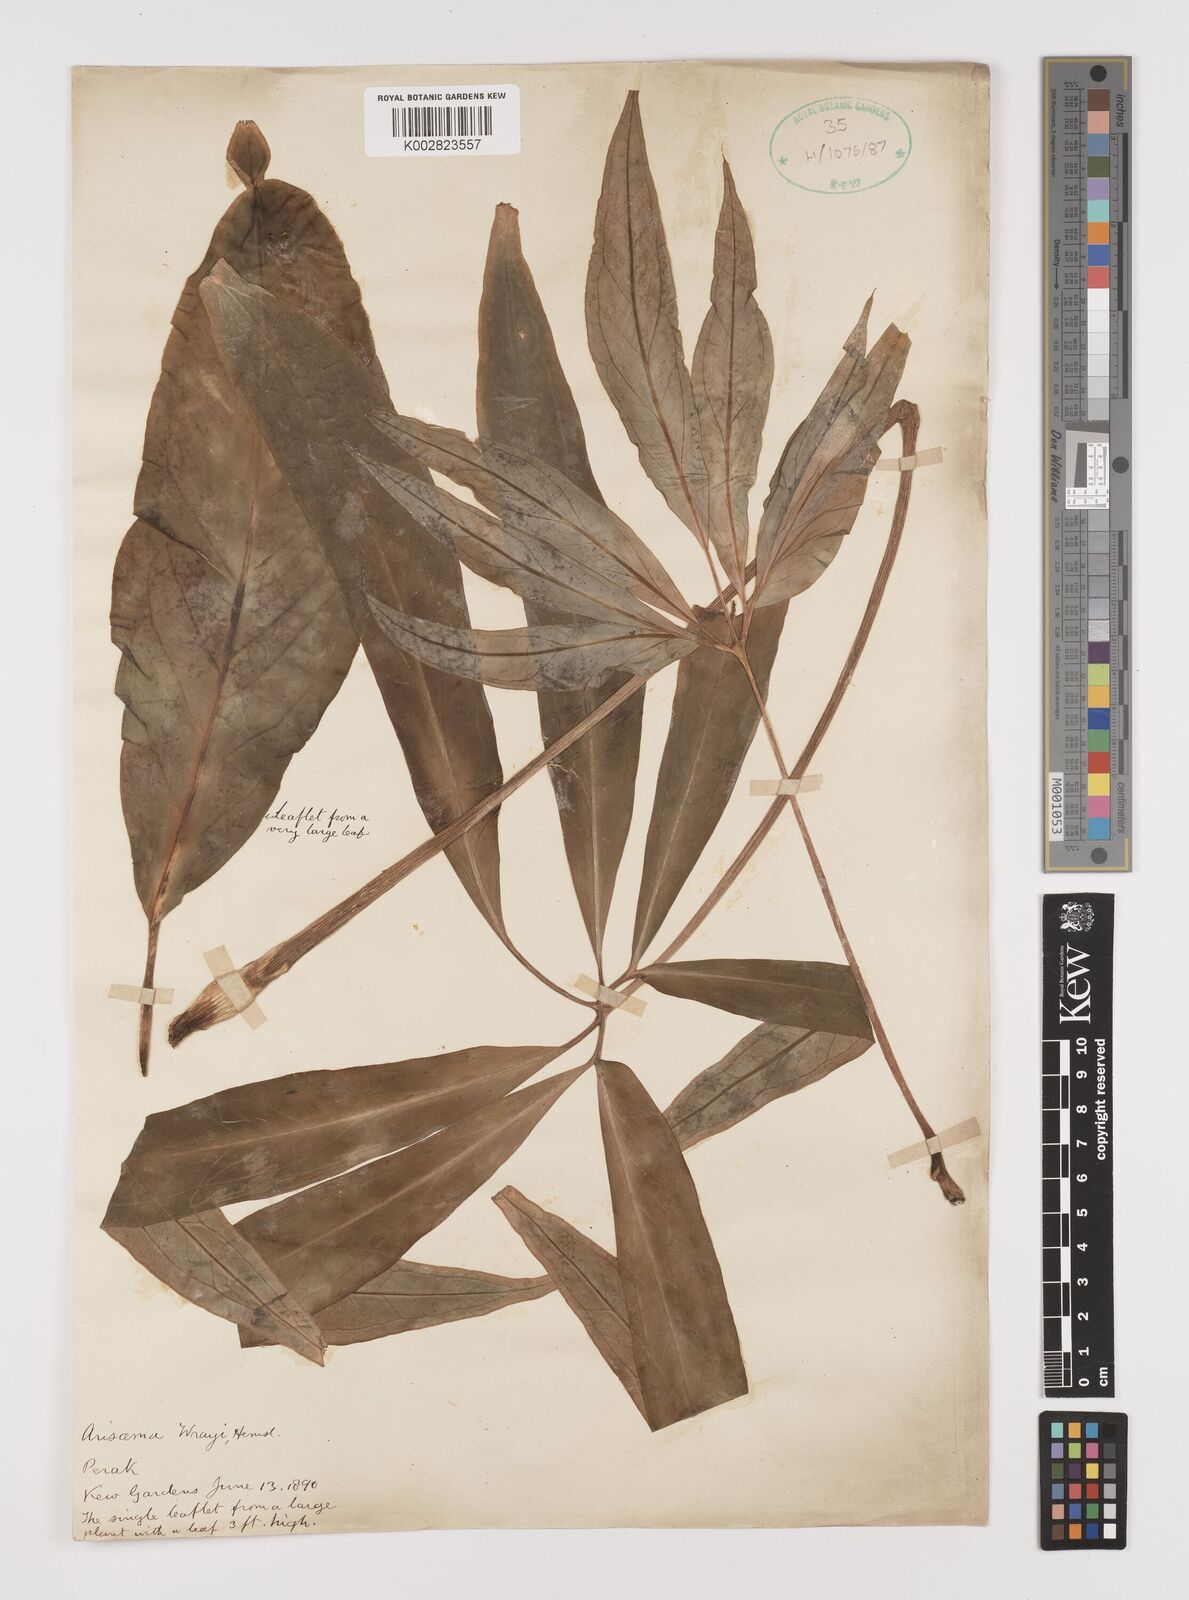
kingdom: Plantae
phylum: Tracheophyta
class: Liliopsida
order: Alismatales
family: Araceae
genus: Arisaema
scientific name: Arisaema wrayi
